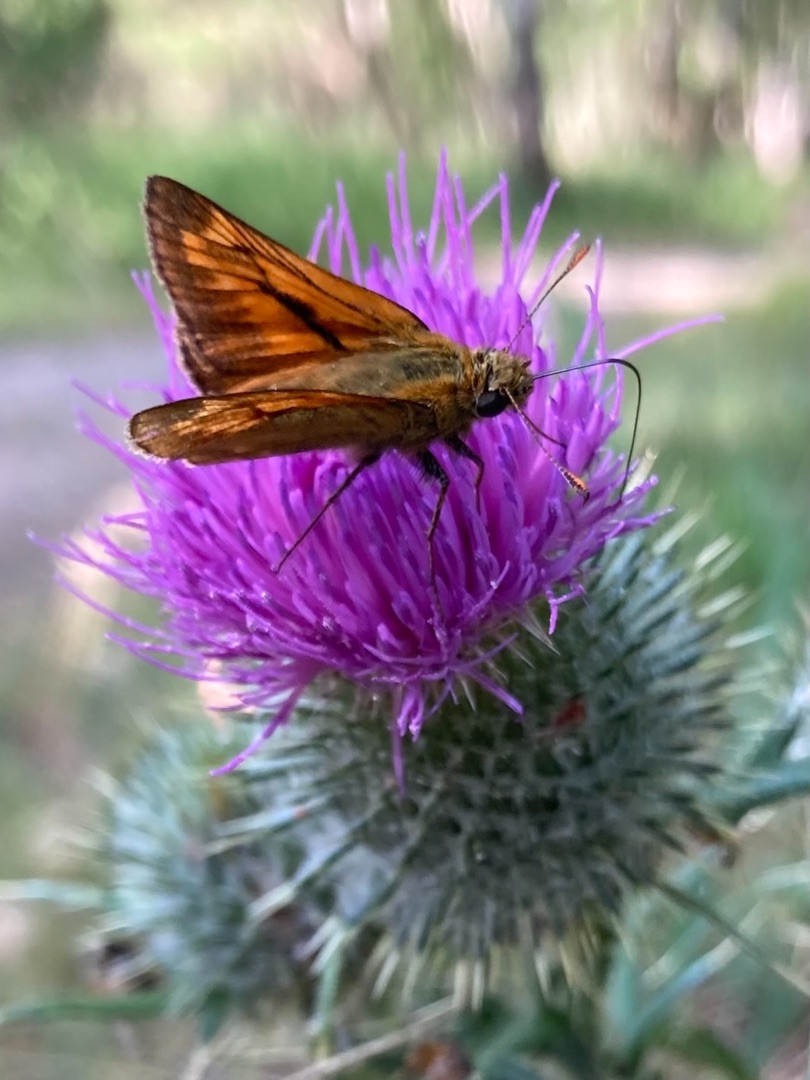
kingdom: Animalia
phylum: Arthropoda
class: Insecta
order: Lepidoptera
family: Hesperiidae
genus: Ochlodes
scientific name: Ochlodes venata
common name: Stor bredpande
